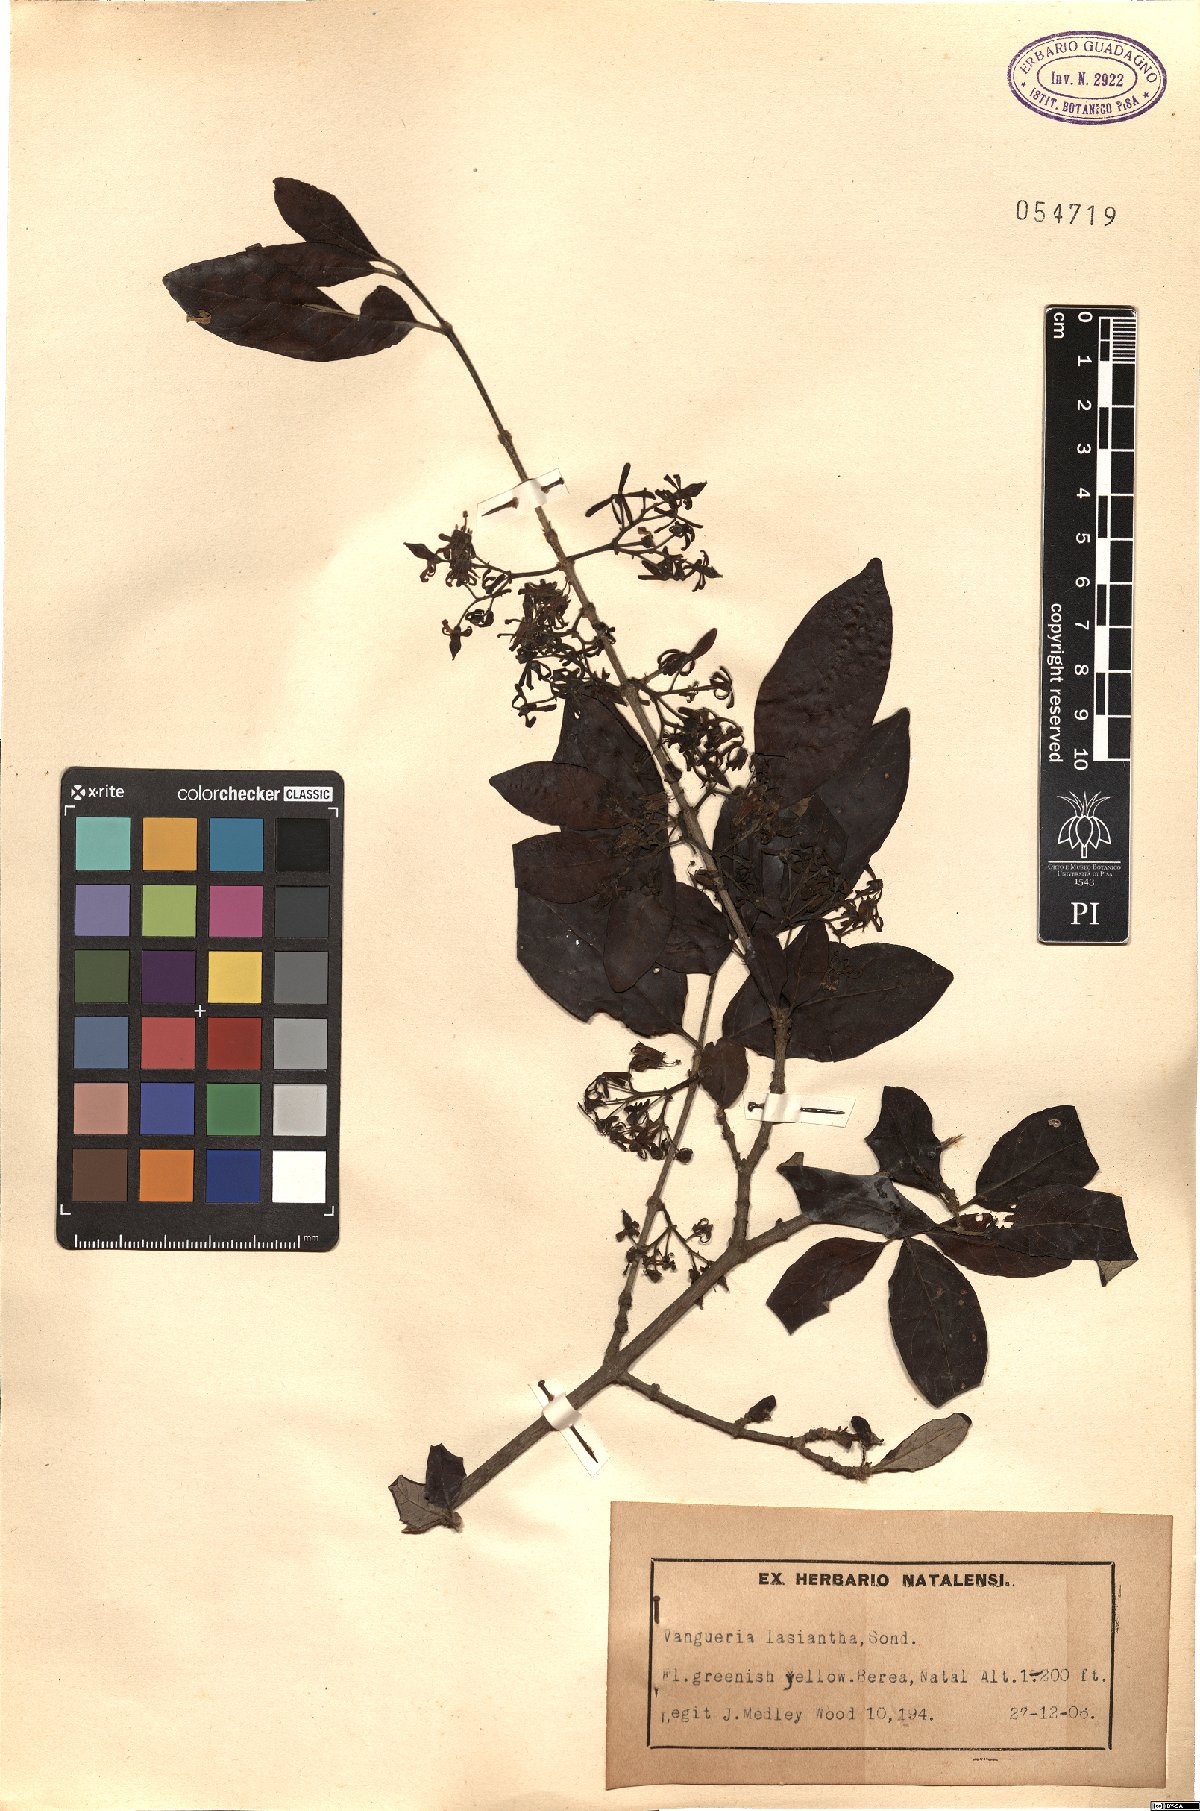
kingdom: Plantae
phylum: Tracheophyta
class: Magnoliopsida
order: Gentianales
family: Rubiaceae
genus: Vangueria
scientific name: Vangueria lasiantha
